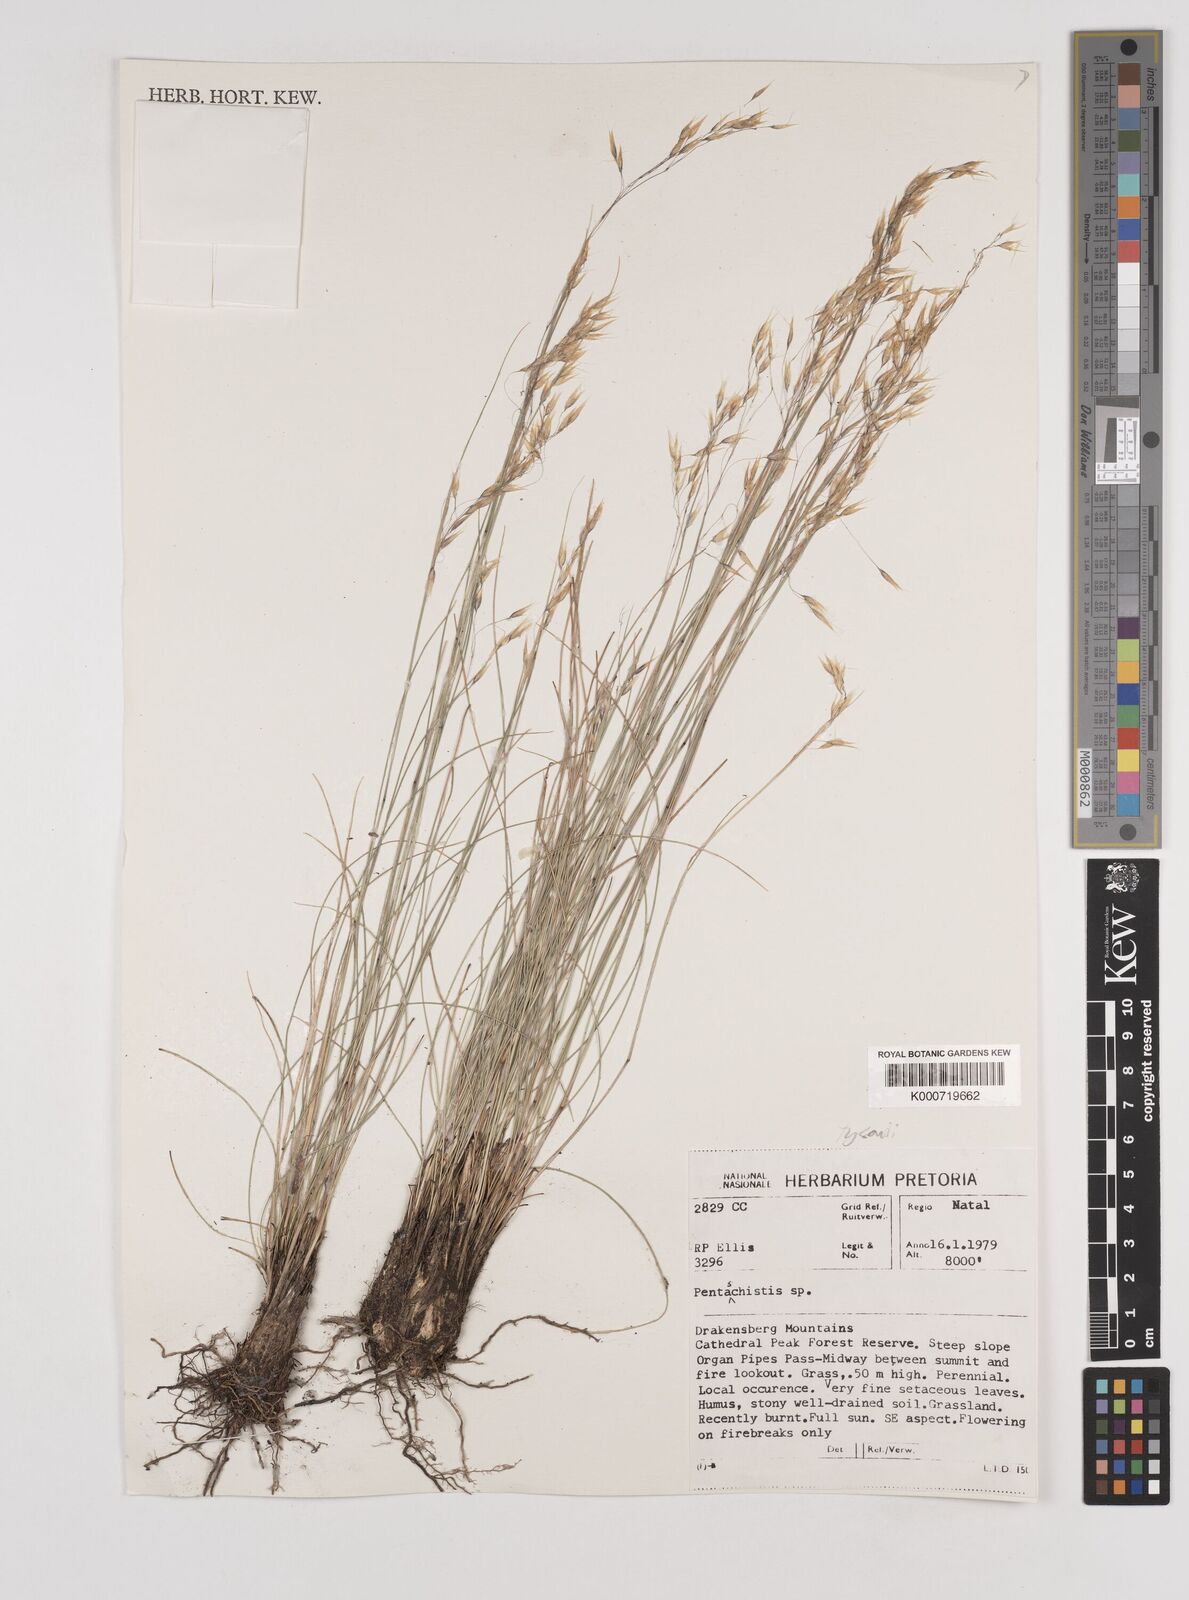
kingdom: Plantae
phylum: Tracheophyta
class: Liliopsida
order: Poales
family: Poaceae
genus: Pentameris
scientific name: Pentameris tysonii
